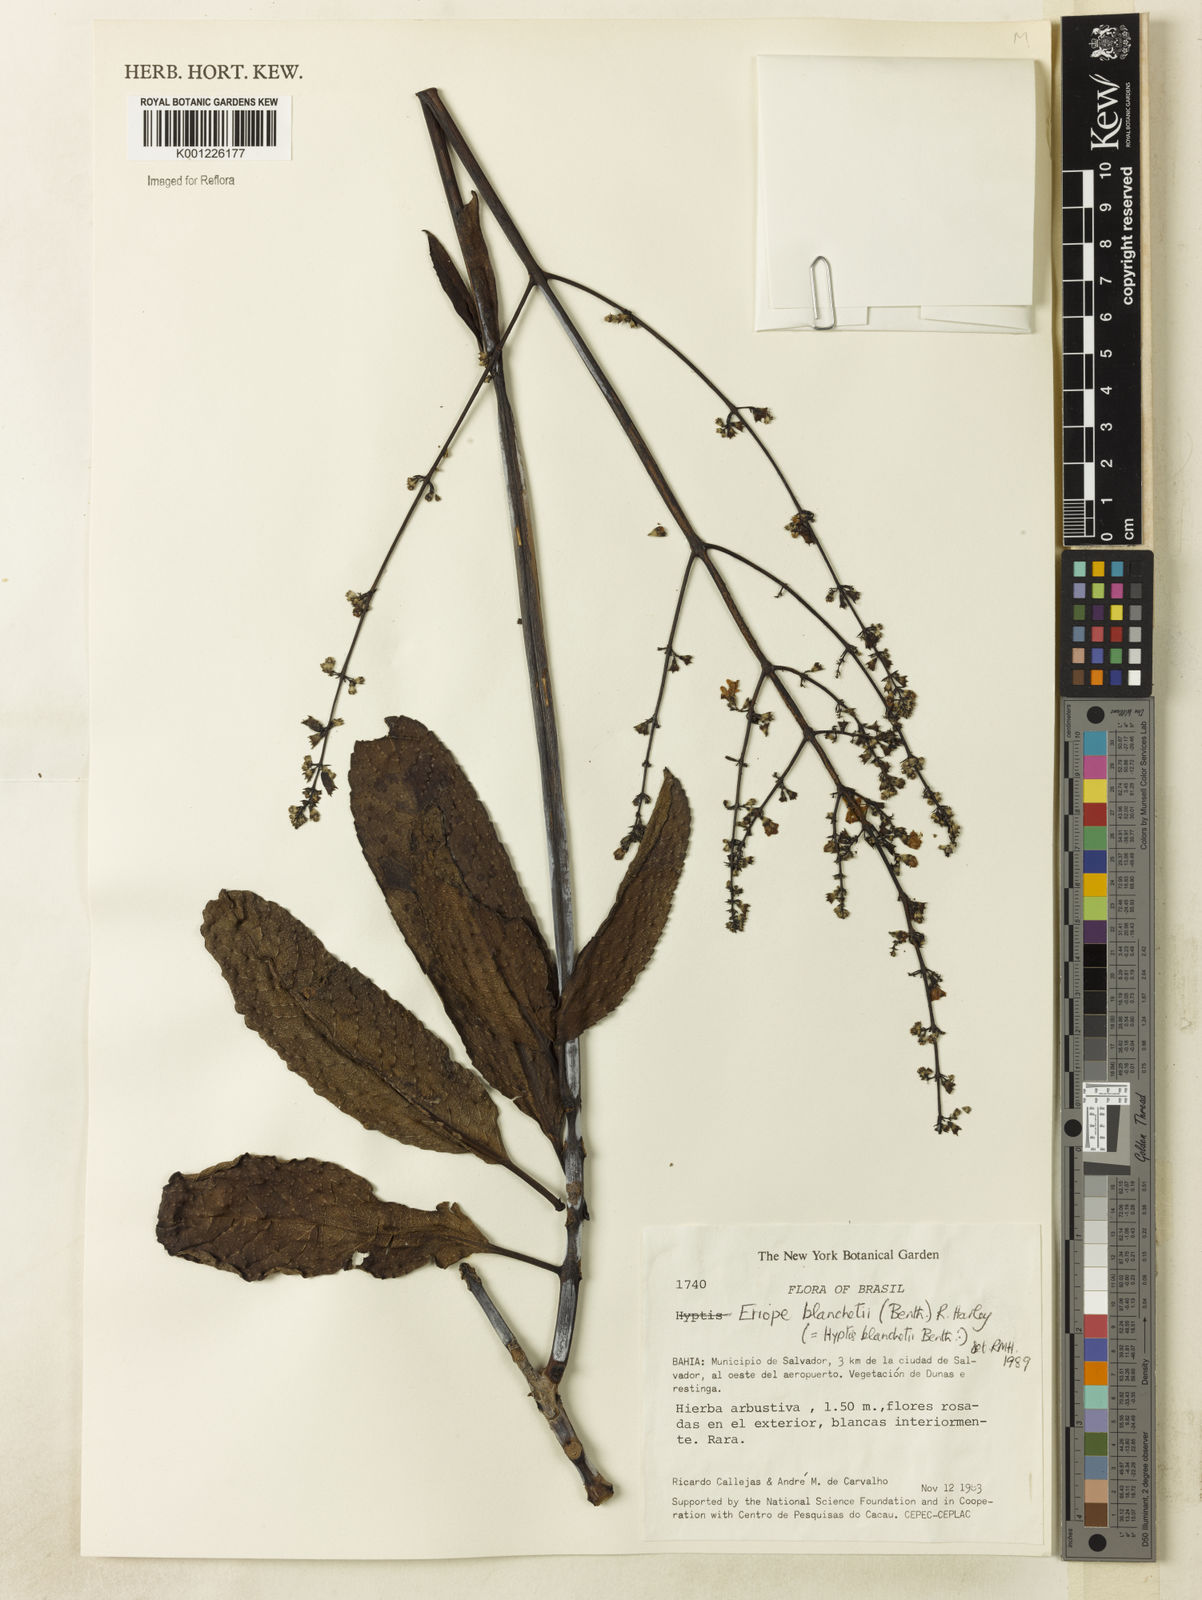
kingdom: Plantae
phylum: Tracheophyta
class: Magnoliopsida
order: Lamiales
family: Lamiaceae
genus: Eriope
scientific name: Eriope blanchetii
